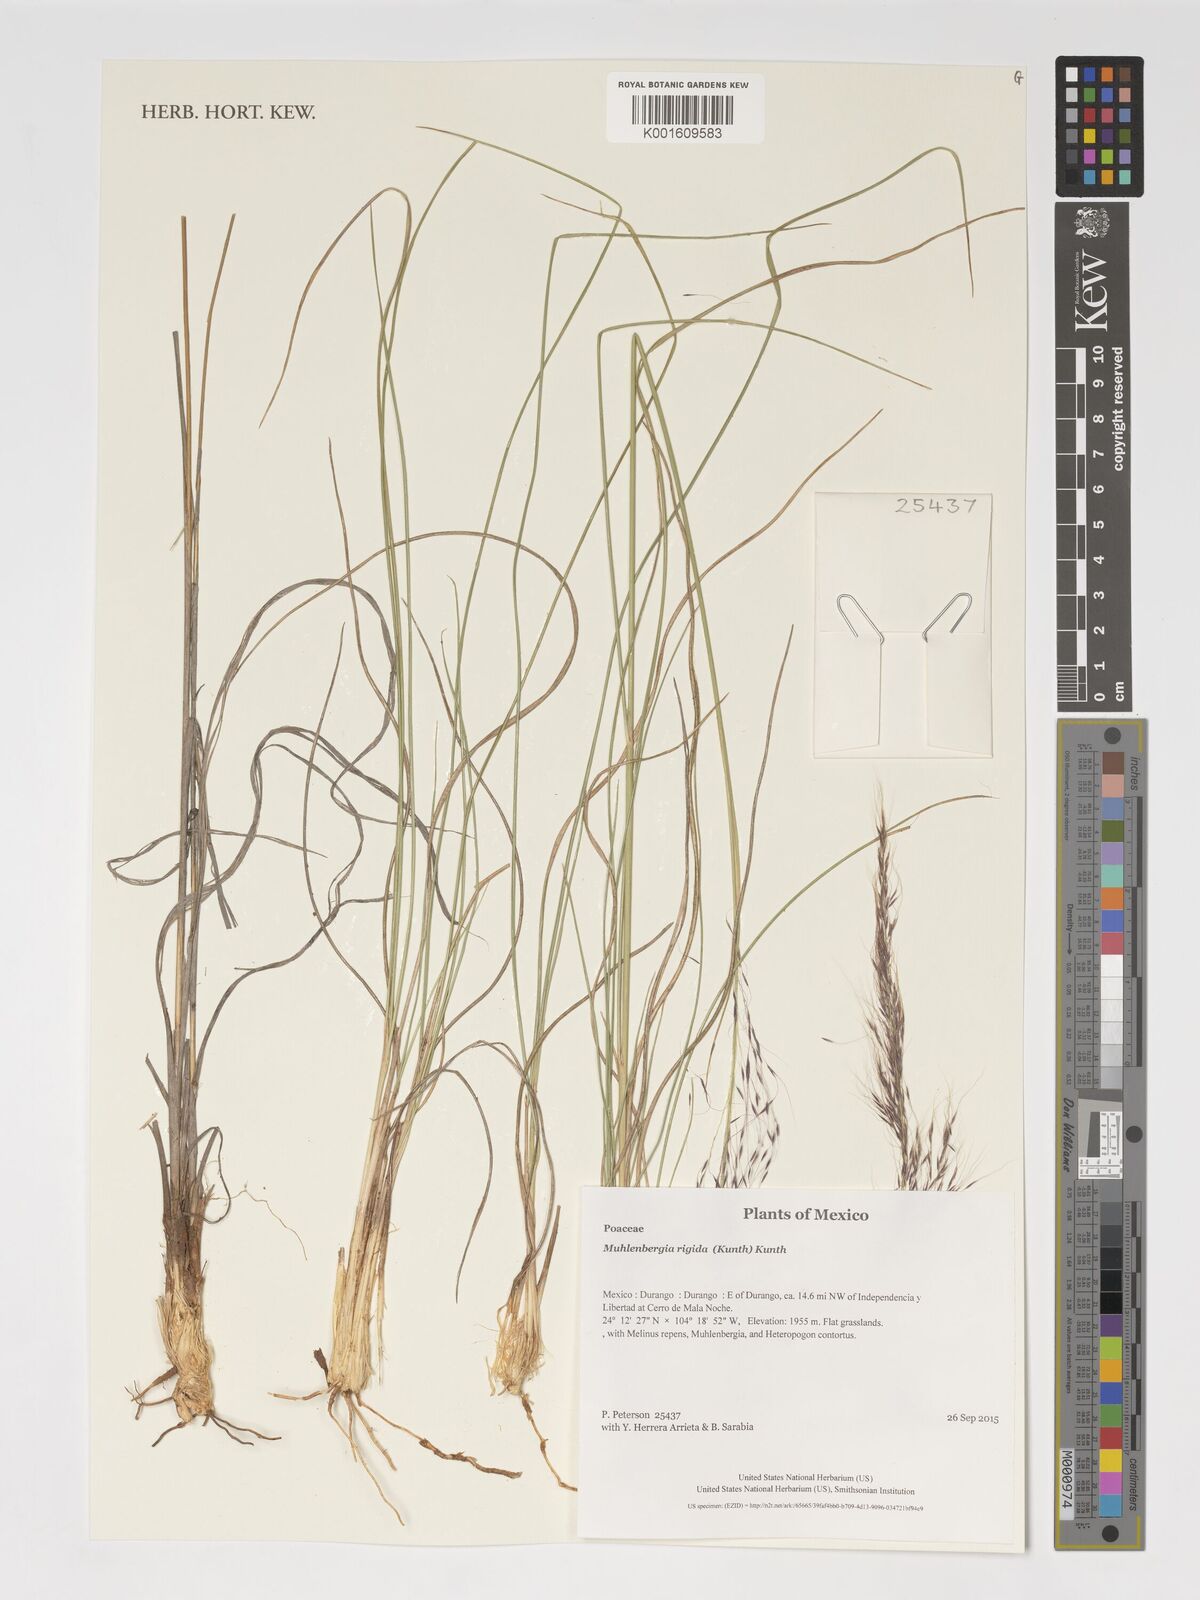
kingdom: Plantae
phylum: Tracheophyta
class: Liliopsida
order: Poales
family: Poaceae
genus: Muhlenbergia
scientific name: Muhlenbergia rigida
